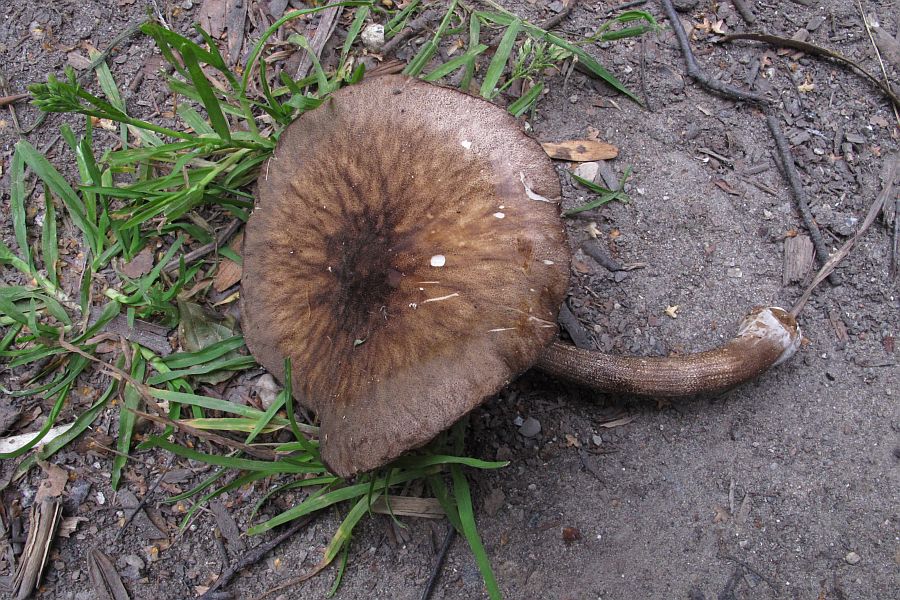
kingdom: Fungi
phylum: Basidiomycota
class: Agaricomycetes
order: Agaricales
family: Pluteaceae
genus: Pluteus
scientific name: Pluteus umbrosus
